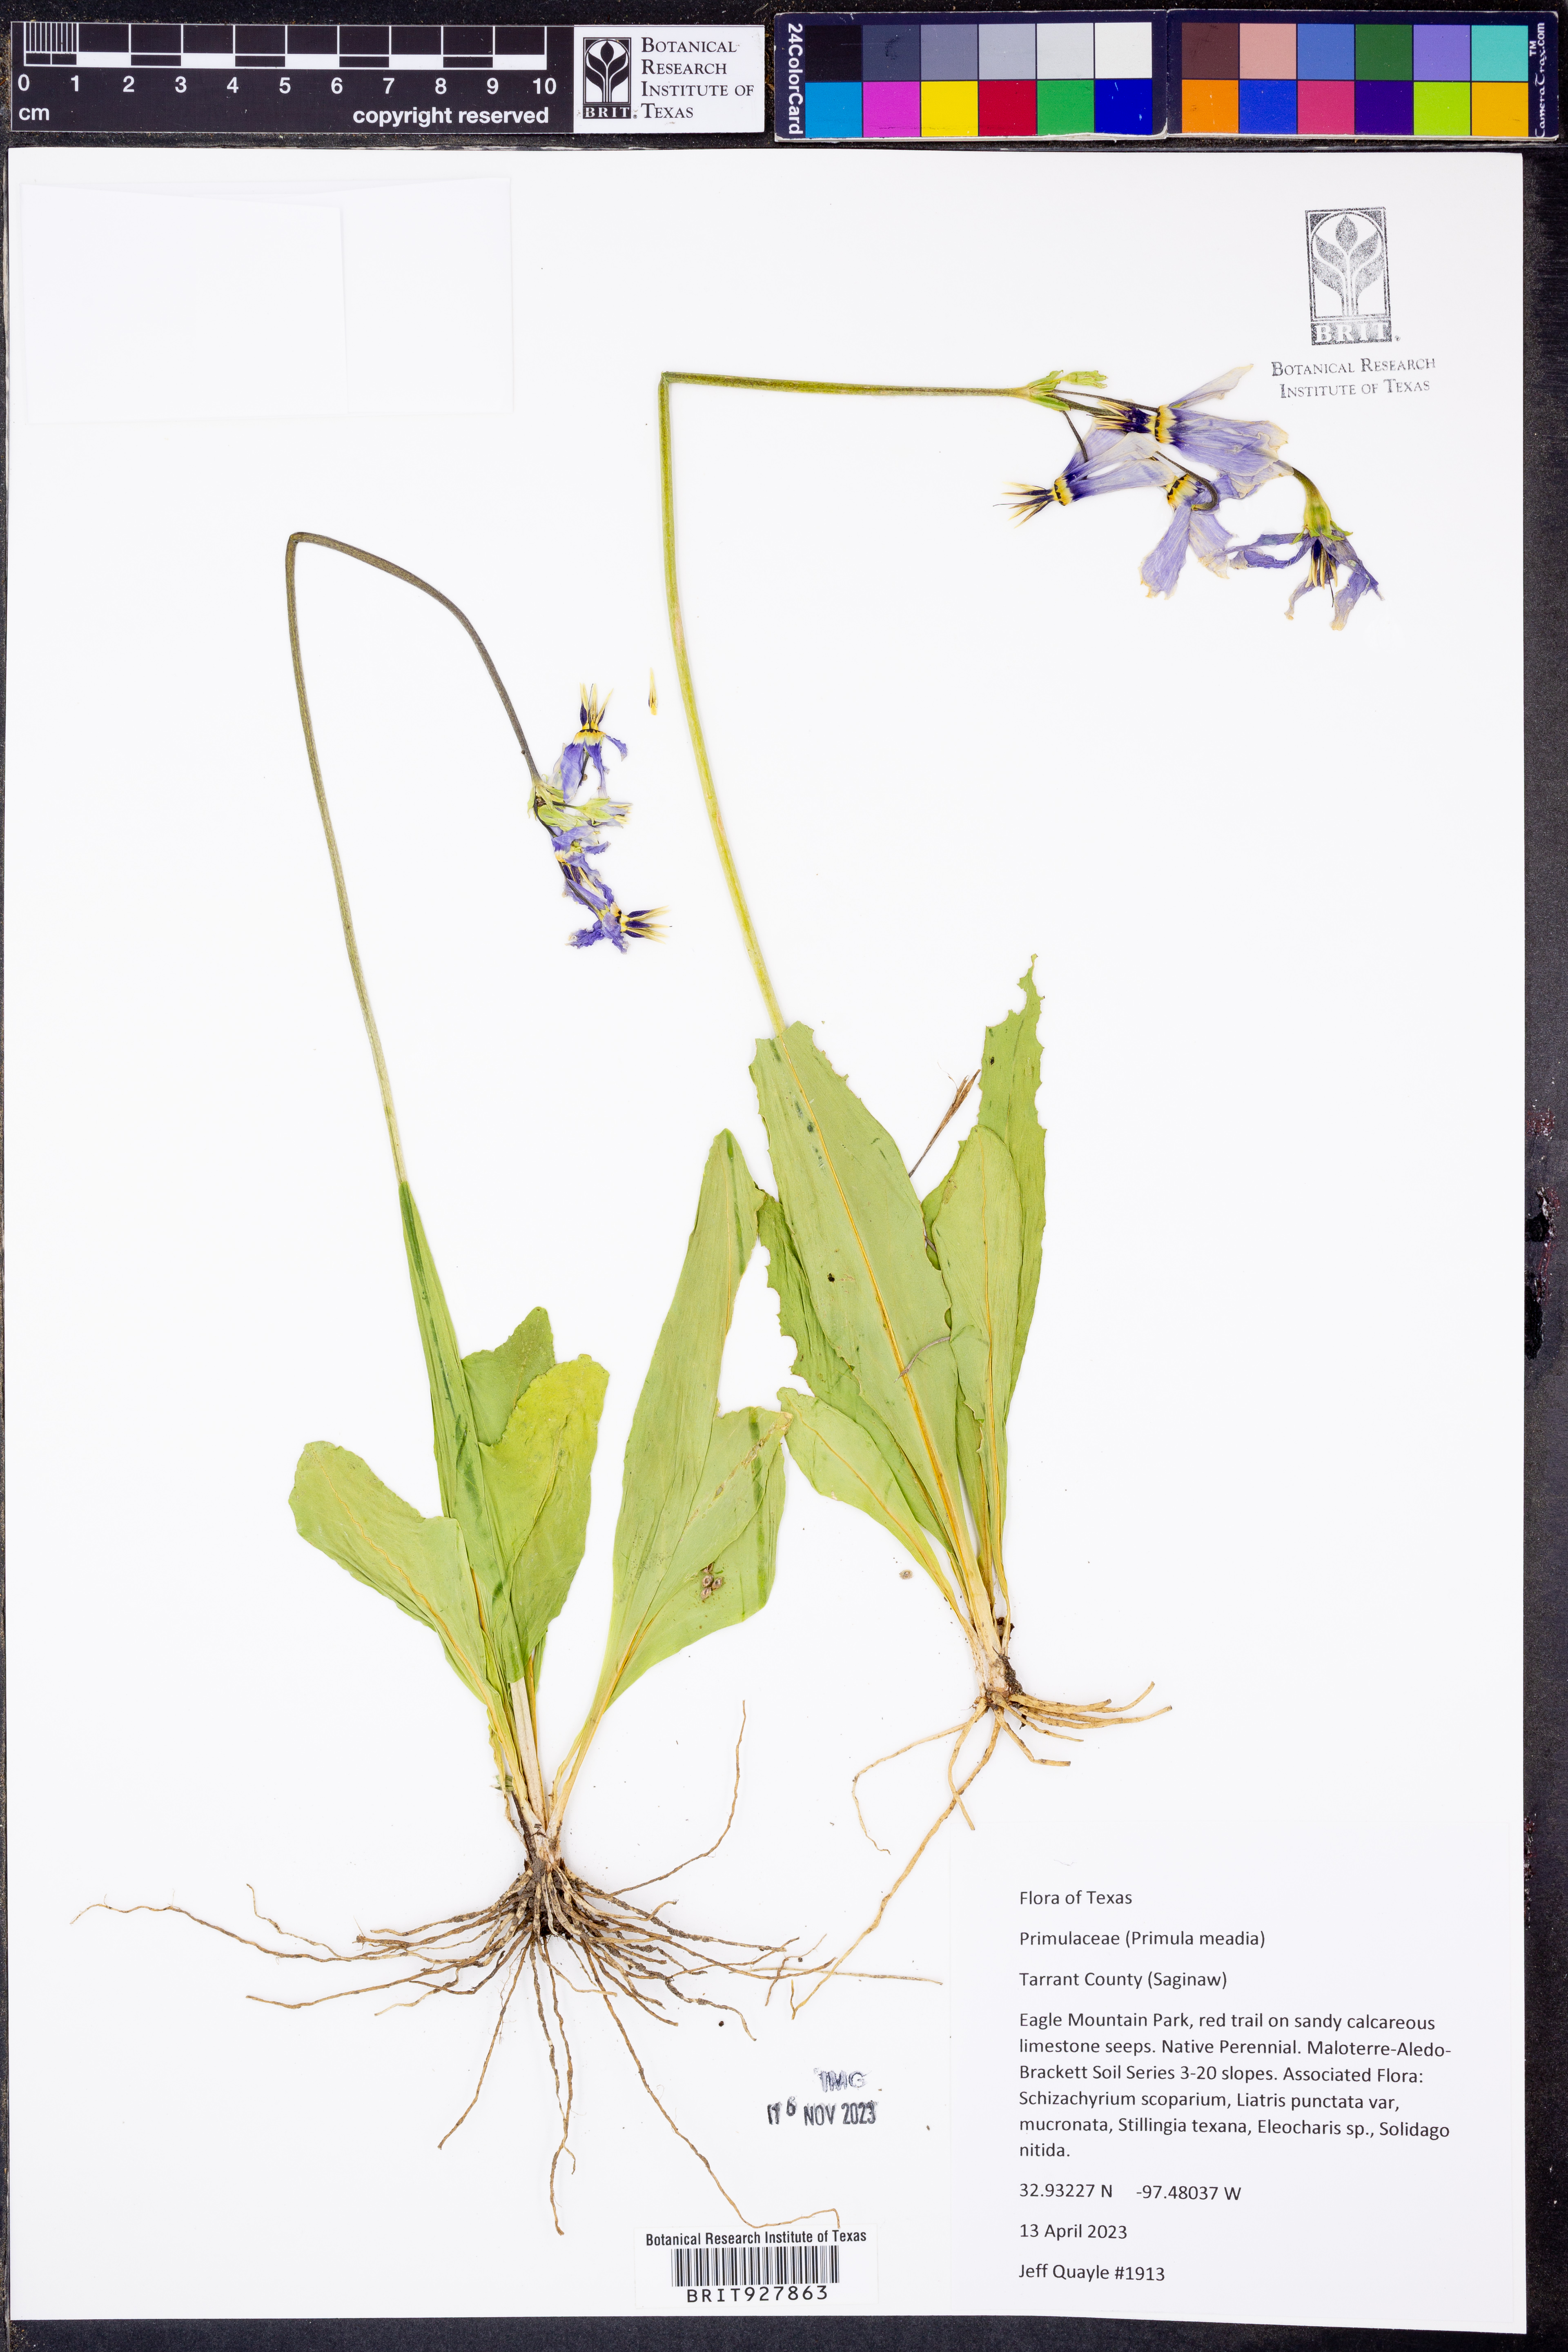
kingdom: Plantae
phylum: Tracheophyta
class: Magnoliopsida
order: Ericales
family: Primulaceae
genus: Dodecatheon
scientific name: Dodecatheon meadia
